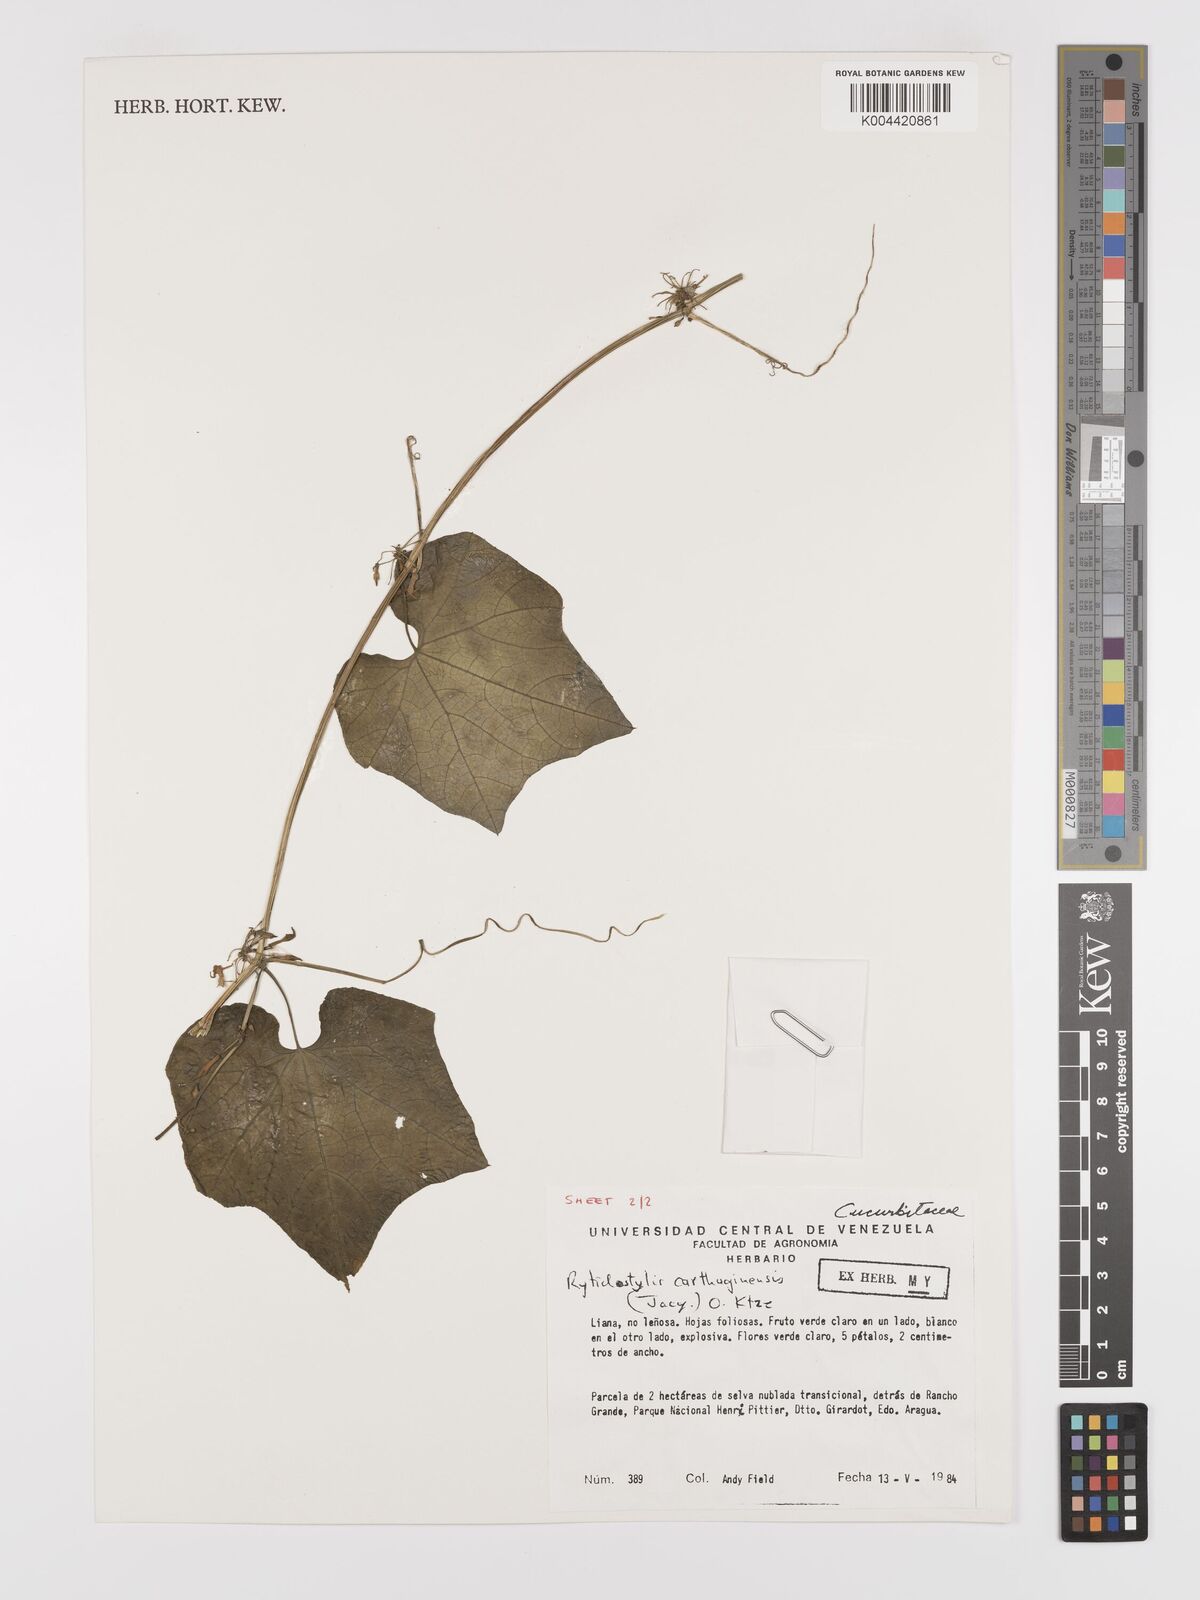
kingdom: Plantae
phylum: Tracheophyta
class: Magnoliopsida
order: Cucurbitales
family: Cucurbitaceae
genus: Cyclanthera
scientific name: Cyclanthera carthagenensis
